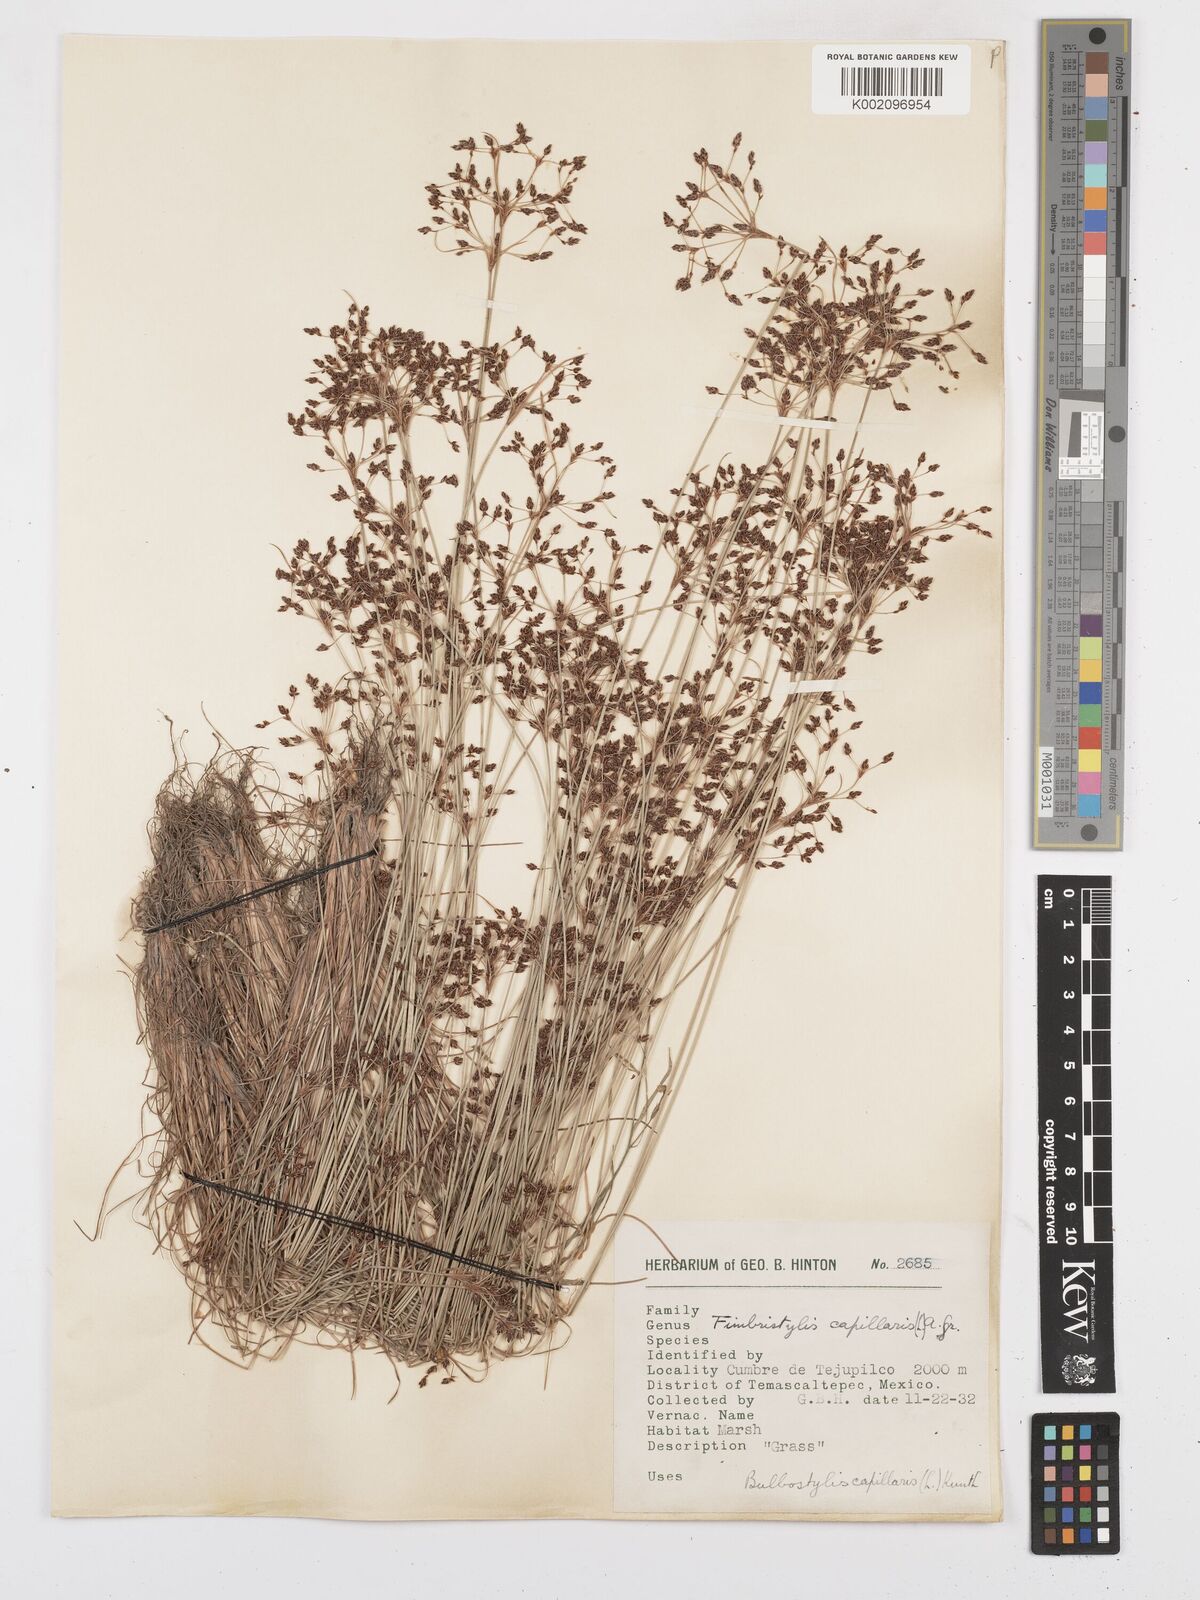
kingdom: Plantae
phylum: Tracheophyta
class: Liliopsida
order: Poales
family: Cyperaceae
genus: Bulbostylis
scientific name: Bulbostylis capillaris
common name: Densetuft hairsedge
